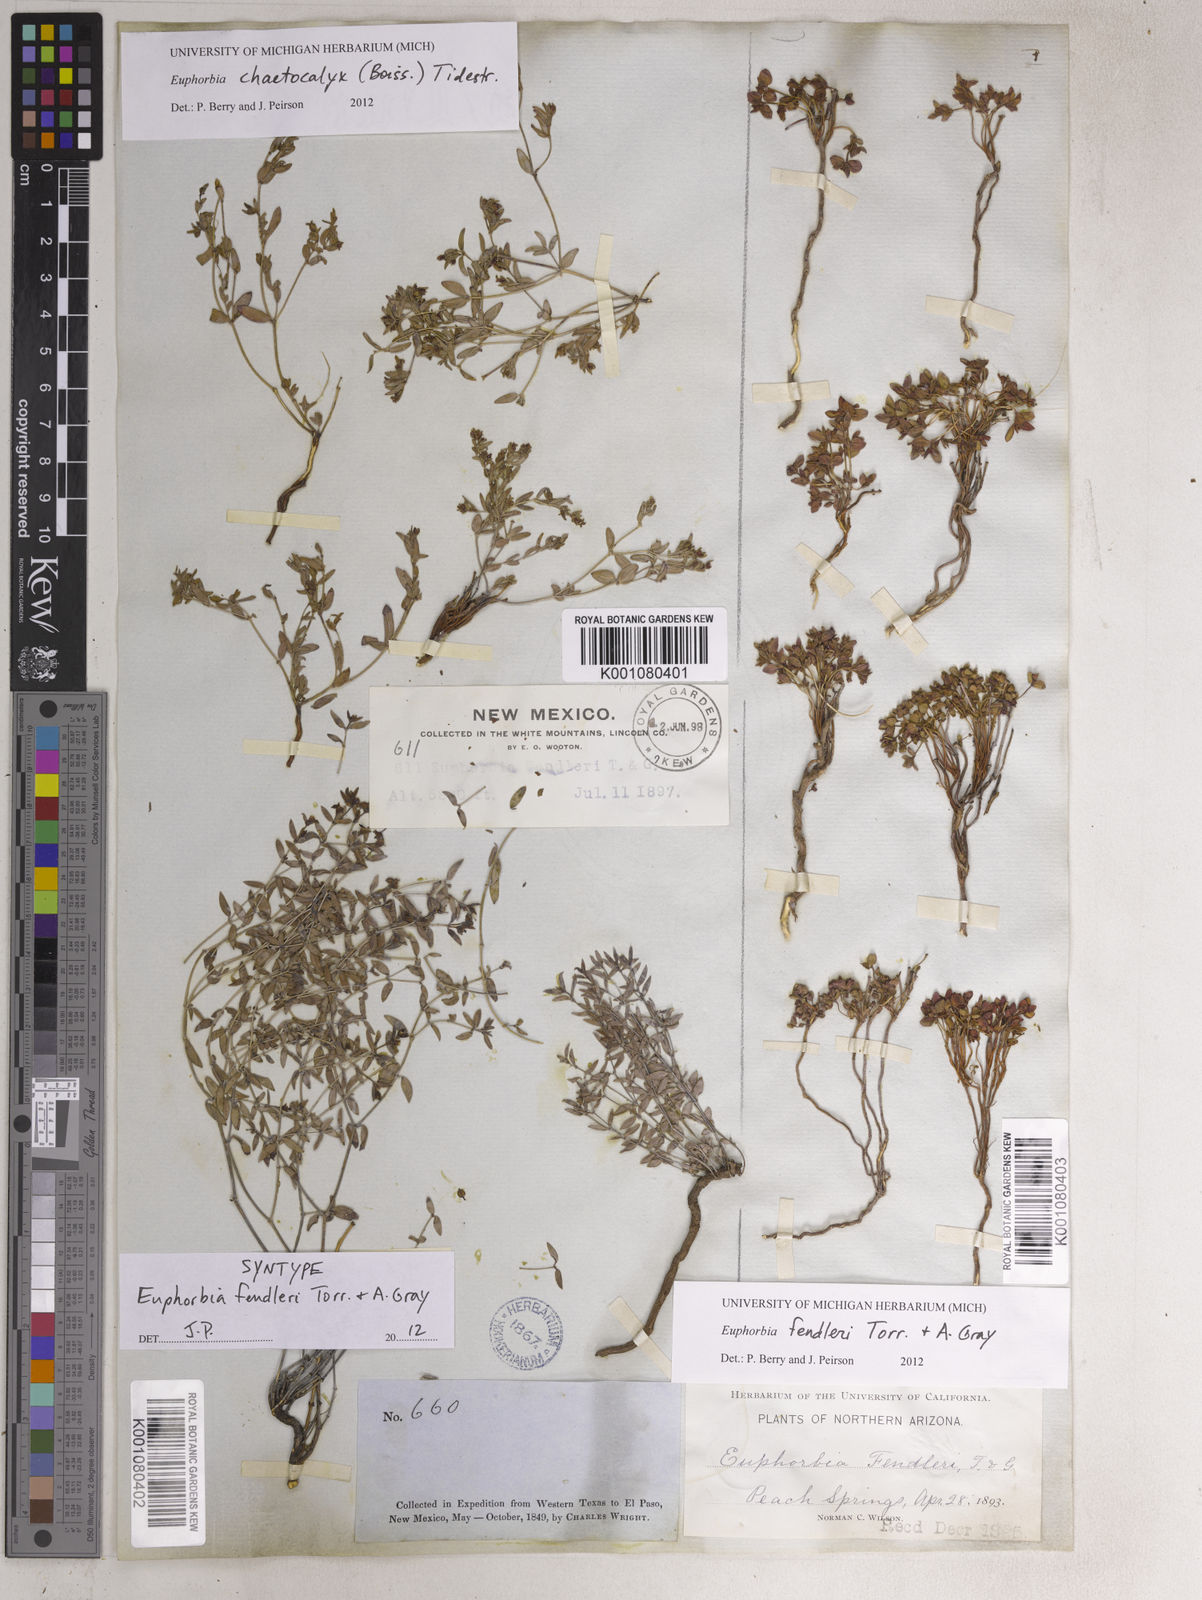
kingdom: Plantae
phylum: Tracheophyta
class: Magnoliopsida
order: Malpighiales
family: Euphorbiaceae
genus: Euphorbia
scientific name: Euphorbia chaetocalyx
